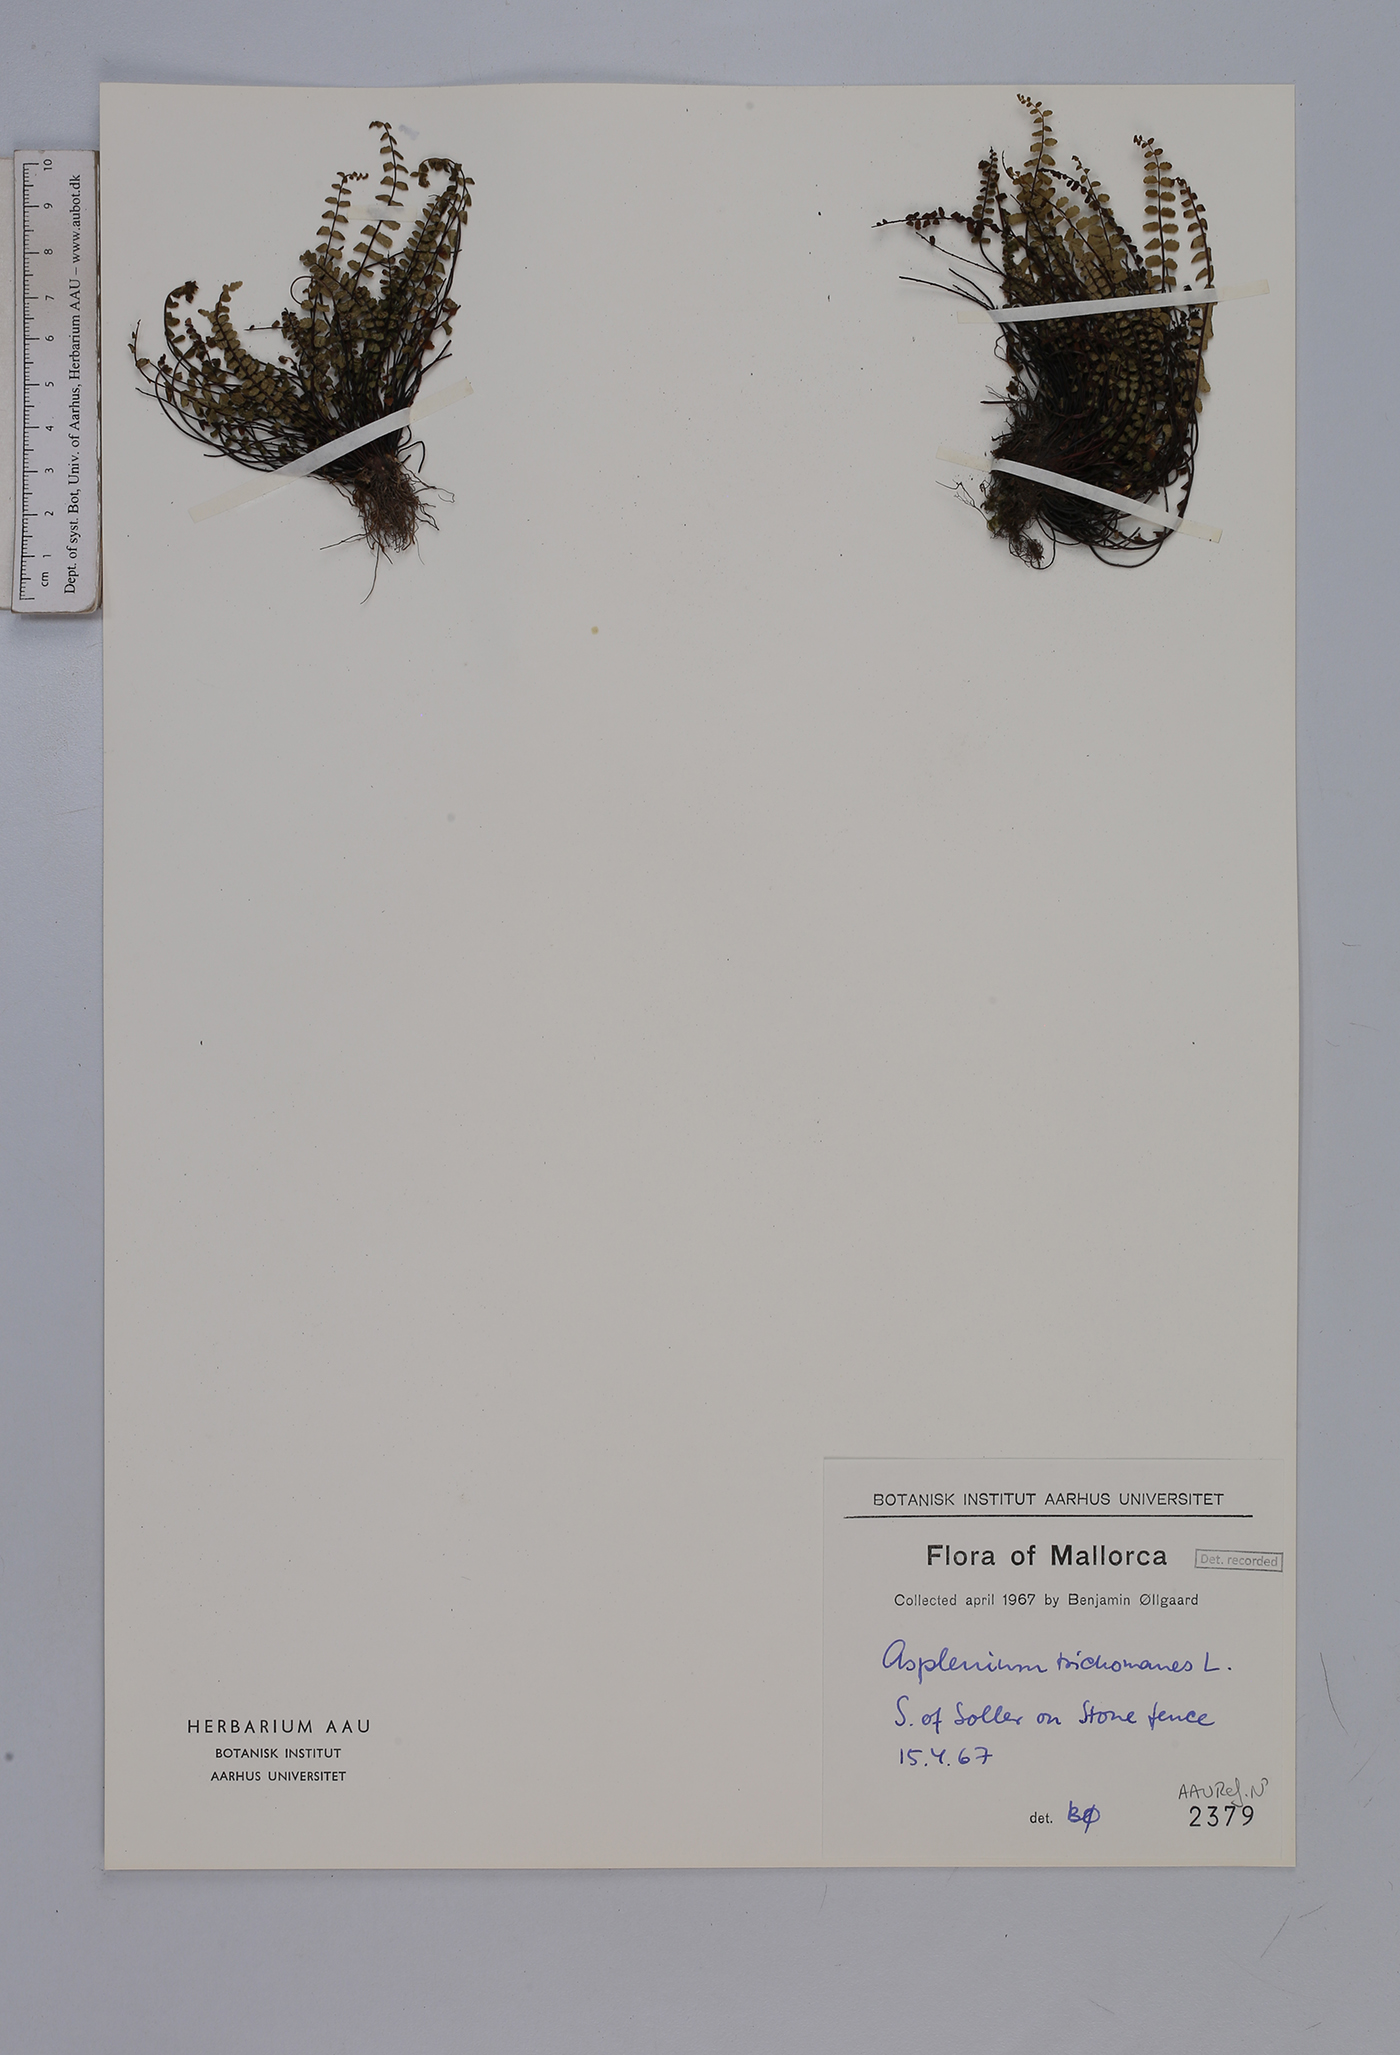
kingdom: Plantae
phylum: Tracheophyta
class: Polypodiopsida
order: Polypodiales
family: Aspleniaceae
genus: Asplenium
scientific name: Asplenium trichomanes
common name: Maidenhair spleenwort
